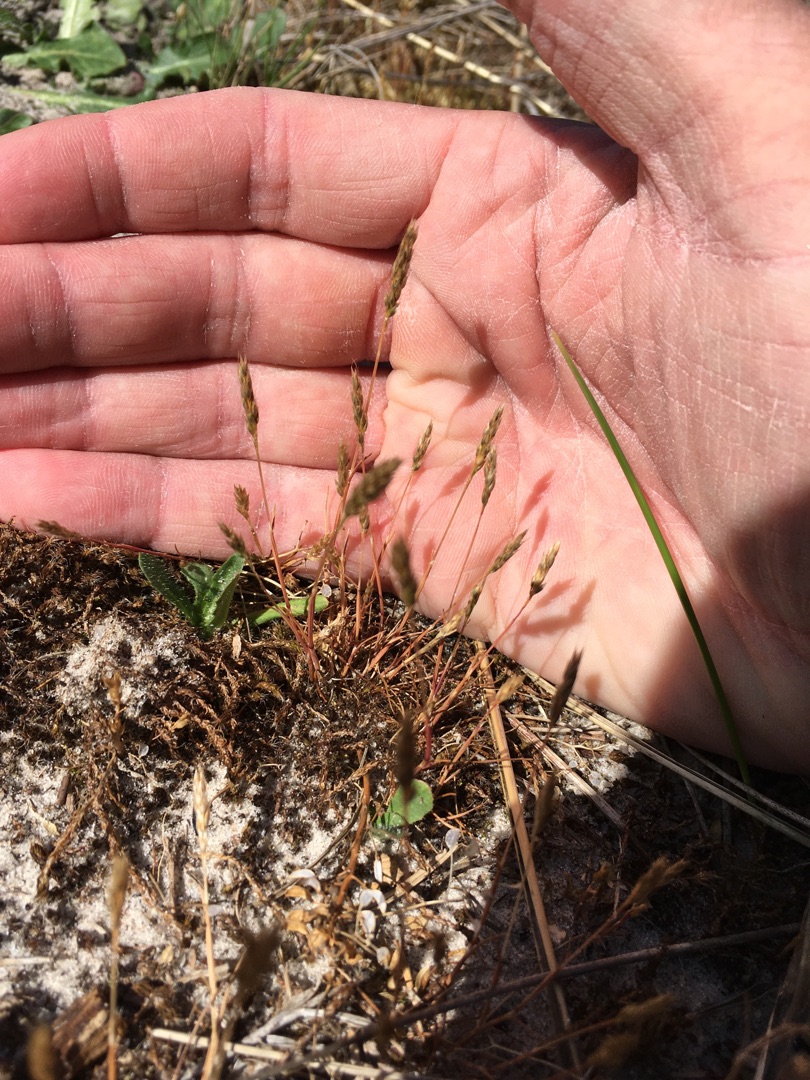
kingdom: Plantae
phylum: Tracheophyta
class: Liliopsida
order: Poales
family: Poaceae
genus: Aira
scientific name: Aira praecox
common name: Tidlig dværgbunke
